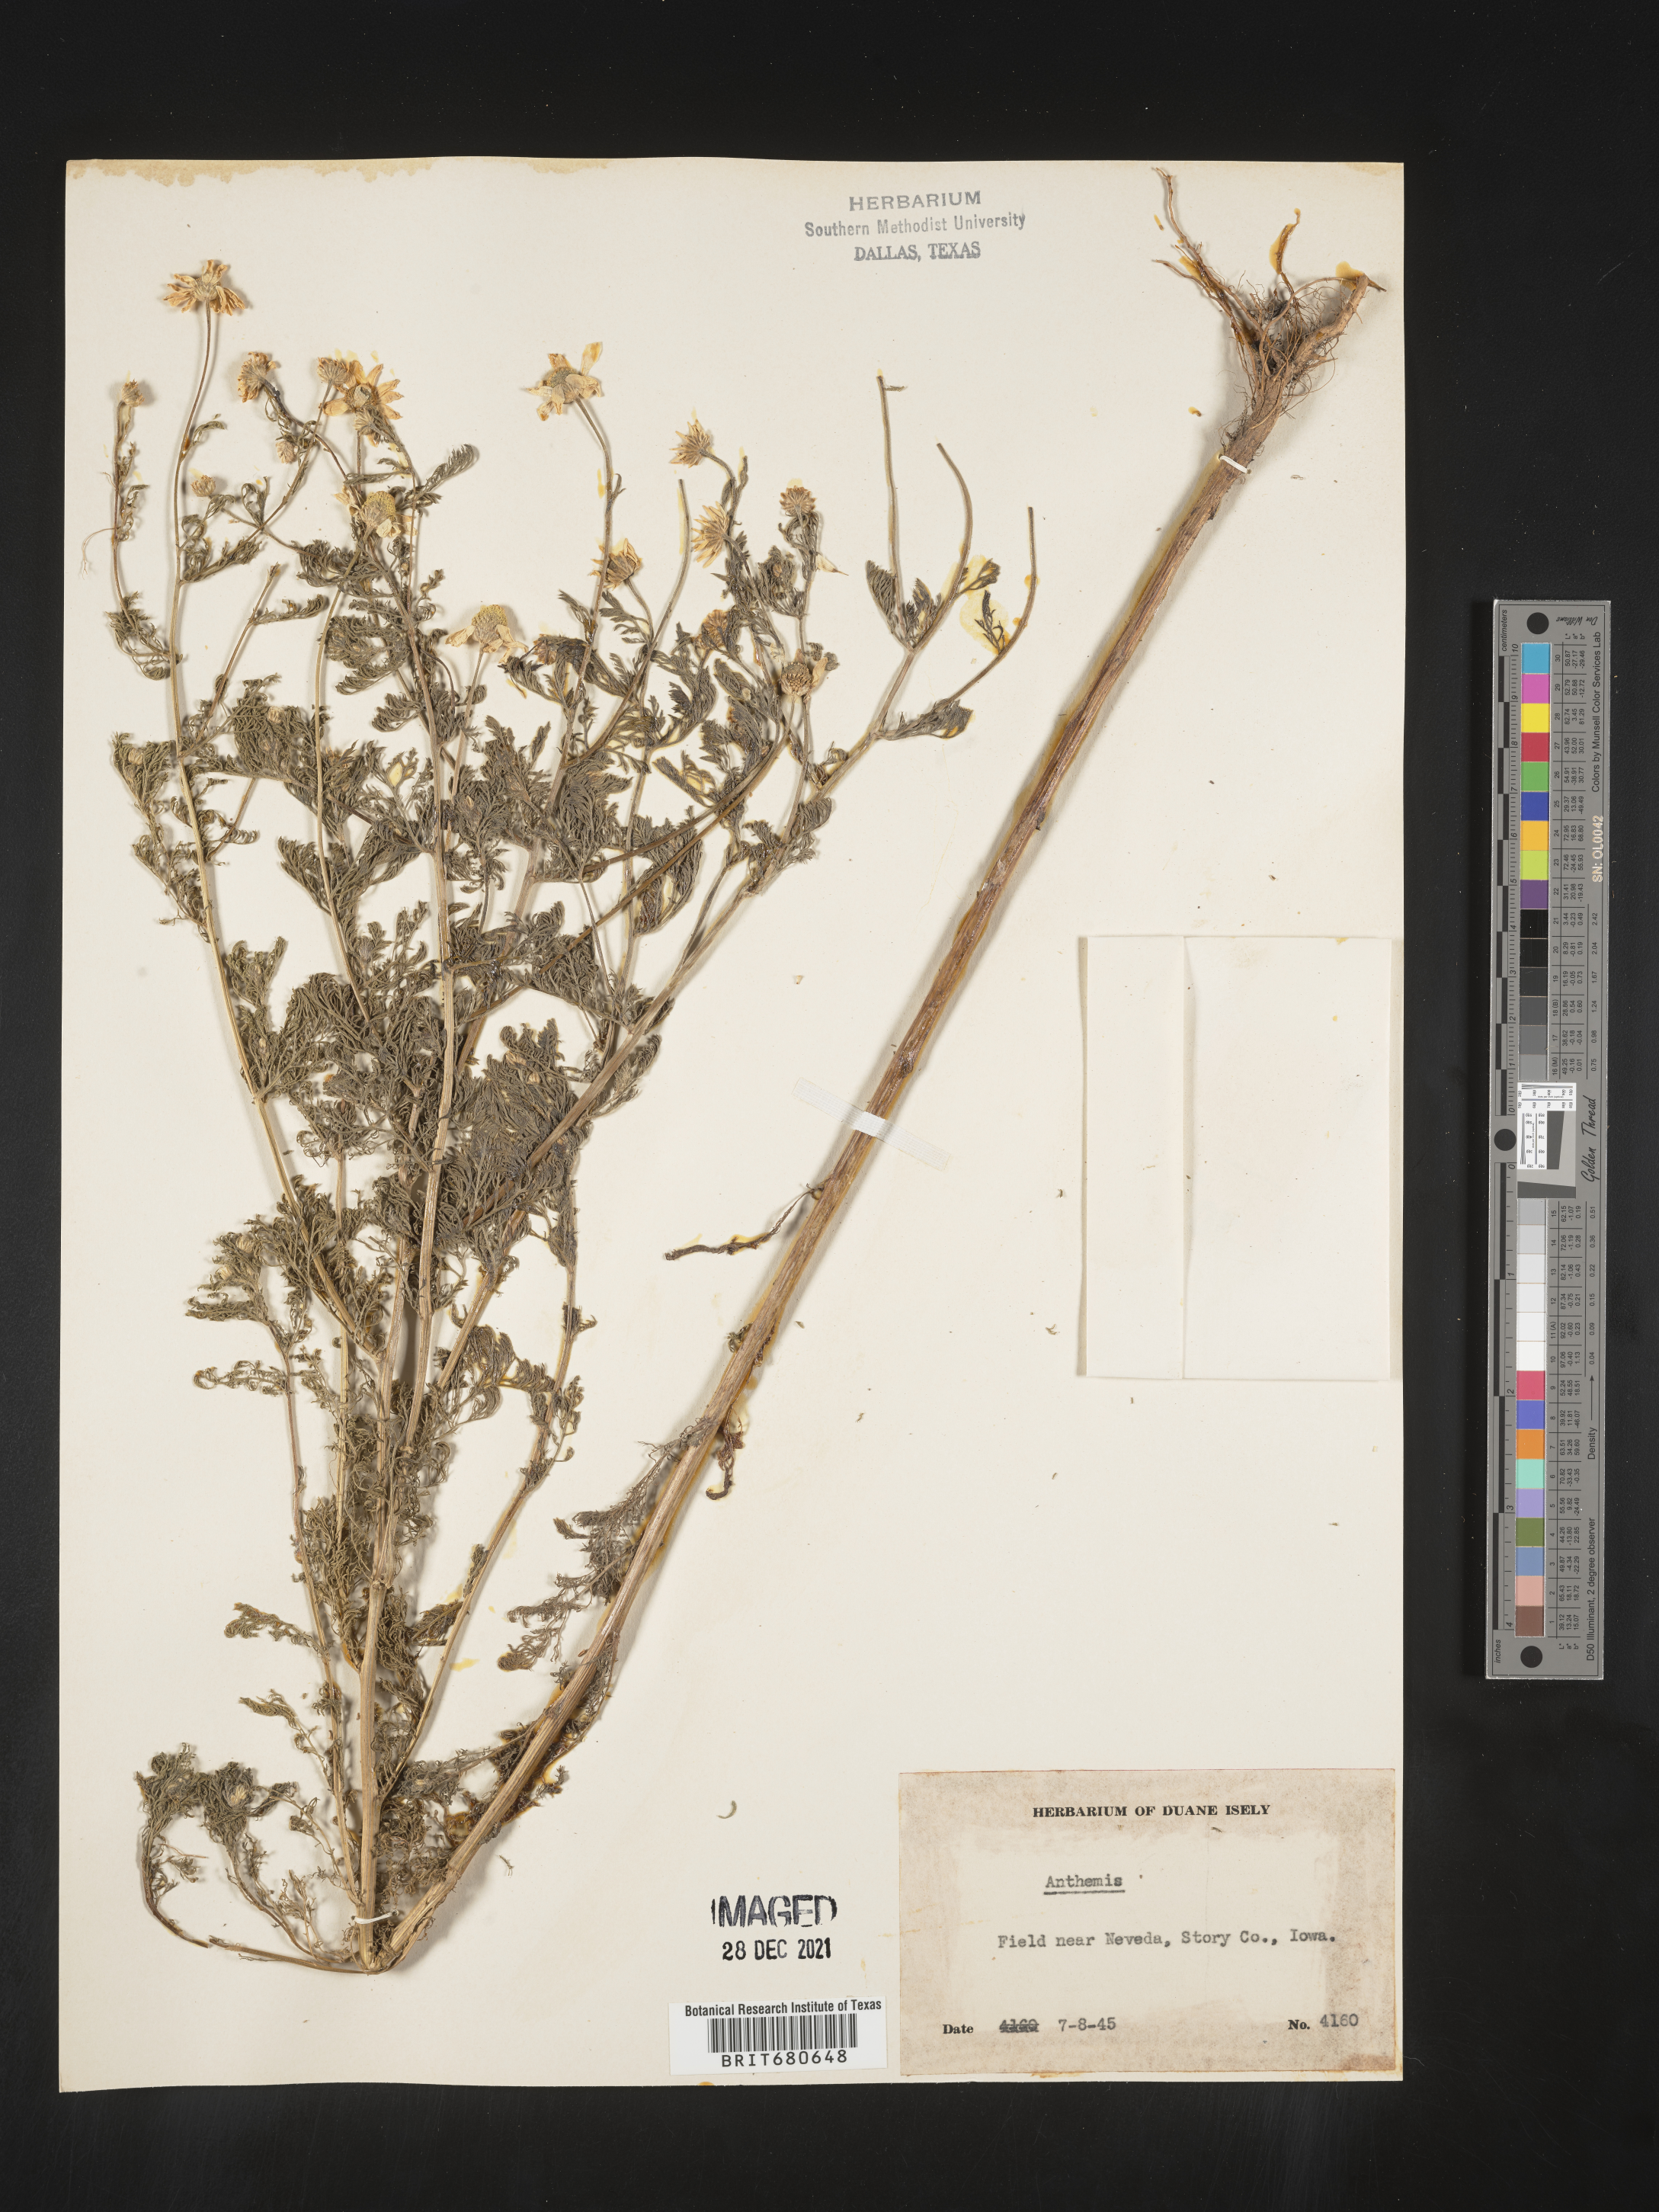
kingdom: Plantae
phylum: Tracheophyta
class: Magnoliopsida
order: Asterales
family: Asteraceae
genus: Anthemis
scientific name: Anthemis
